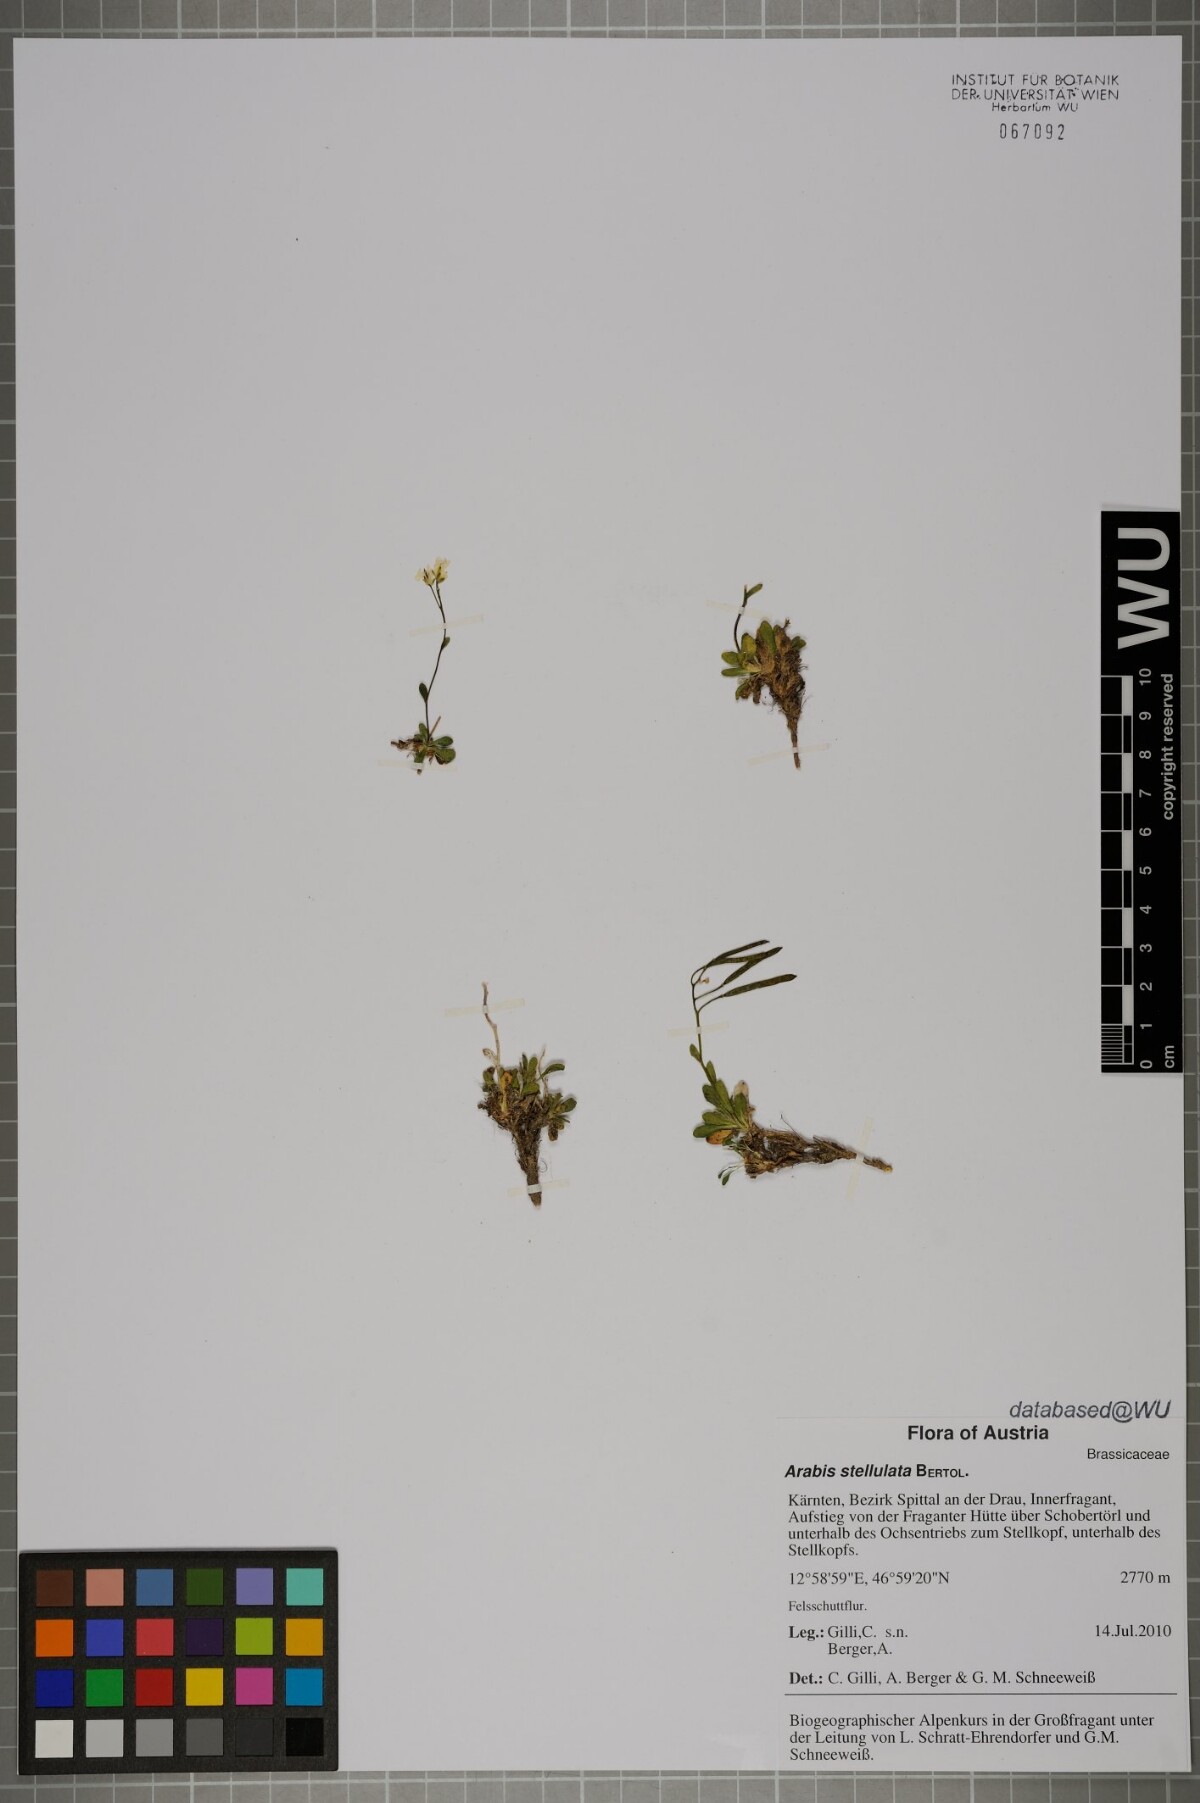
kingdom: Plantae
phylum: Tracheophyta
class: Magnoliopsida
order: Brassicales
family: Brassicaceae
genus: Arabis
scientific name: Arabis stellulata
